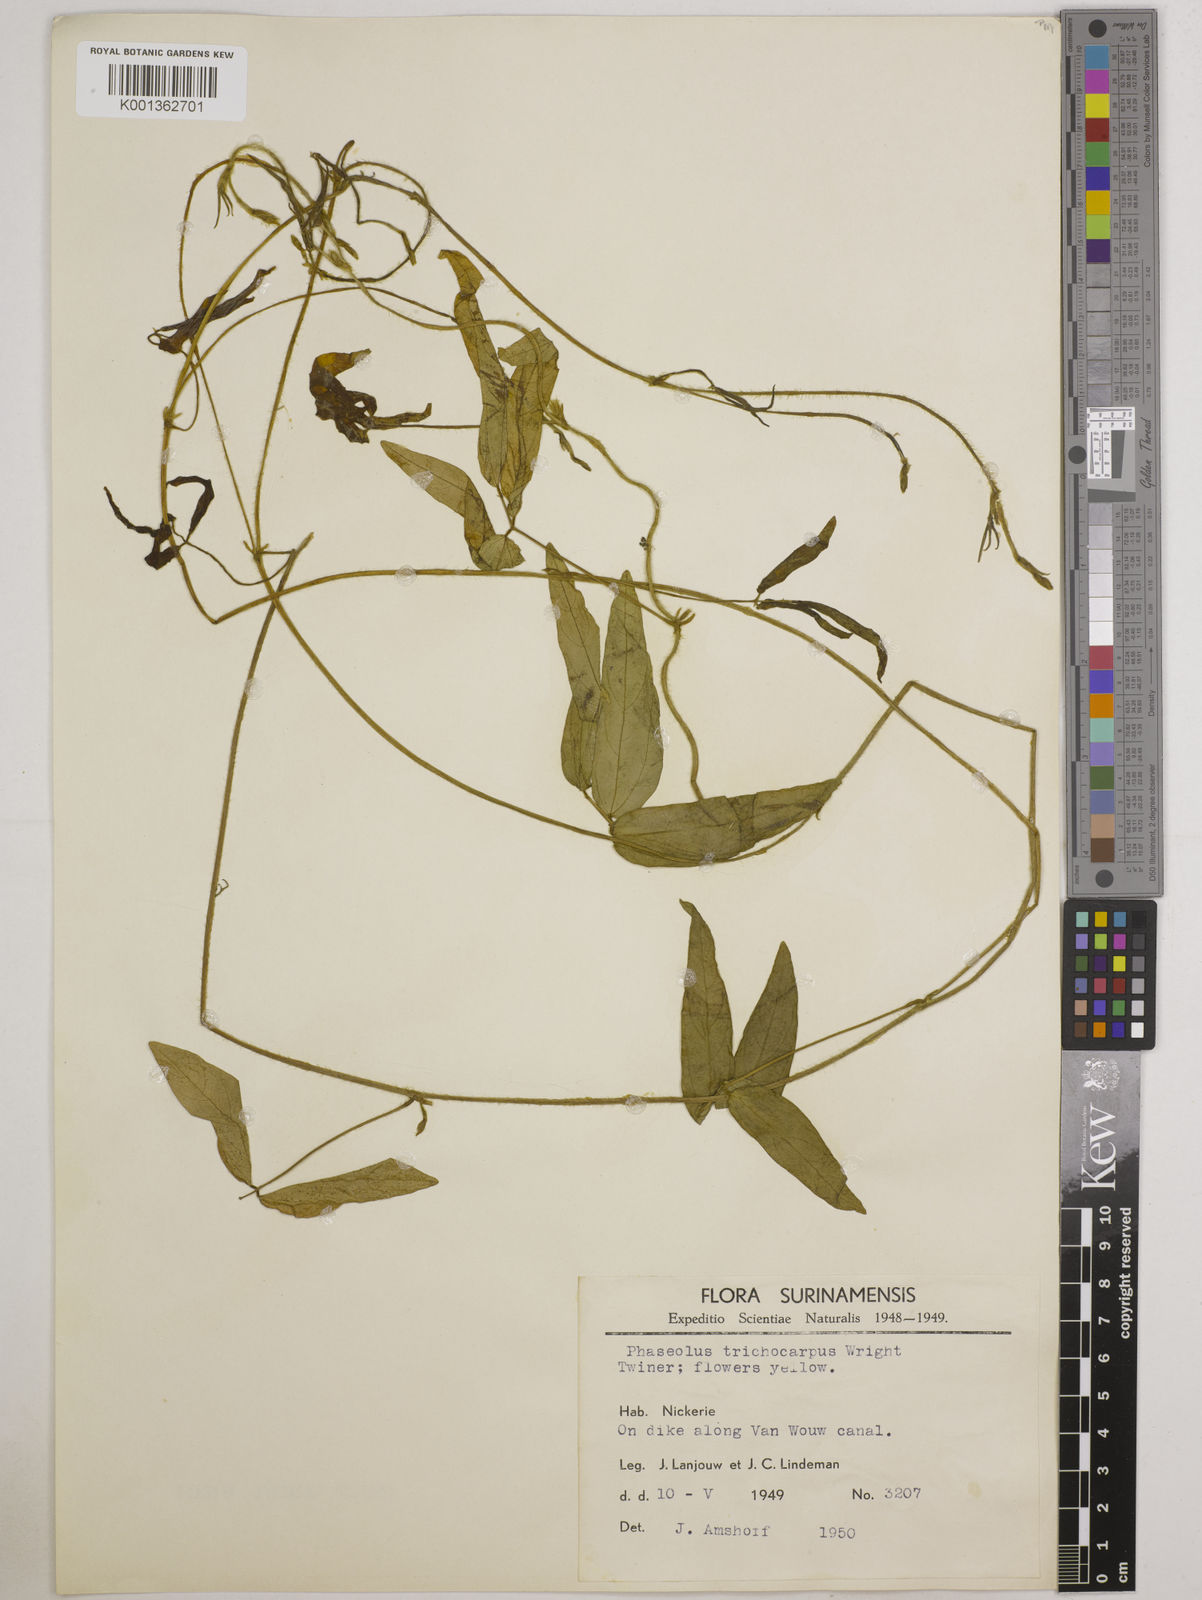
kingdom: Plantae
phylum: Tracheophyta
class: Magnoliopsida
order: Fabales
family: Fabaceae
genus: Vigna
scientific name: Vigna trichocarpa
